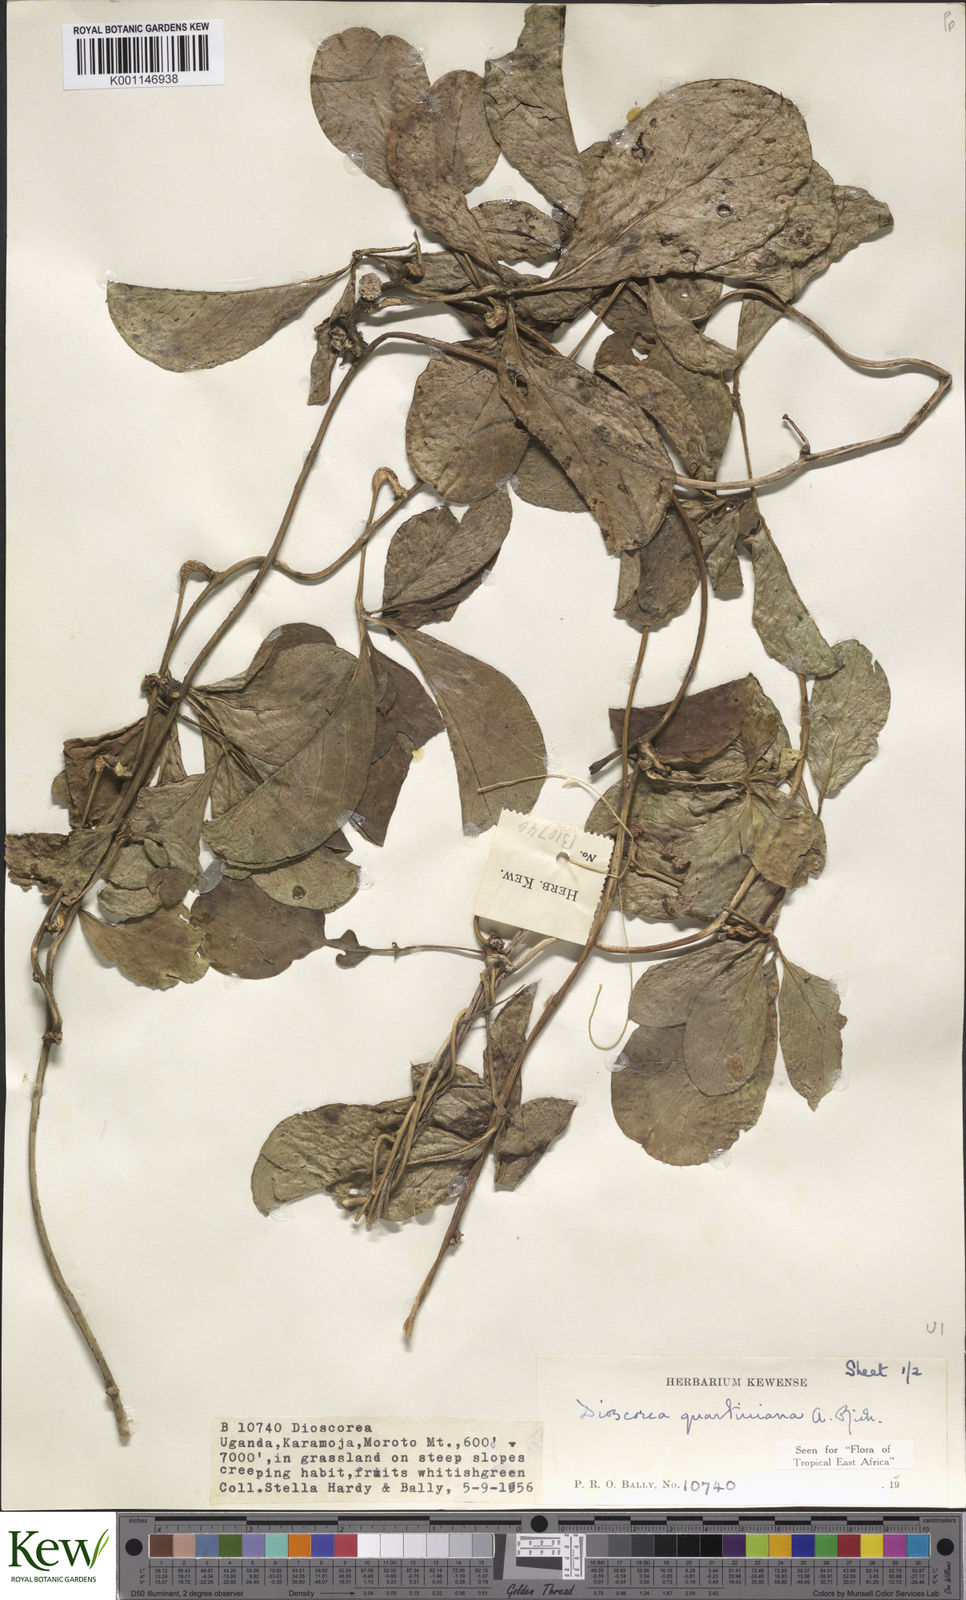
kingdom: Plantae
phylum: Tracheophyta
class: Liliopsida
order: Dioscoreales
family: Dioscoreaceae
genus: Dioscorea
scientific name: Dioscorea quartiniana
